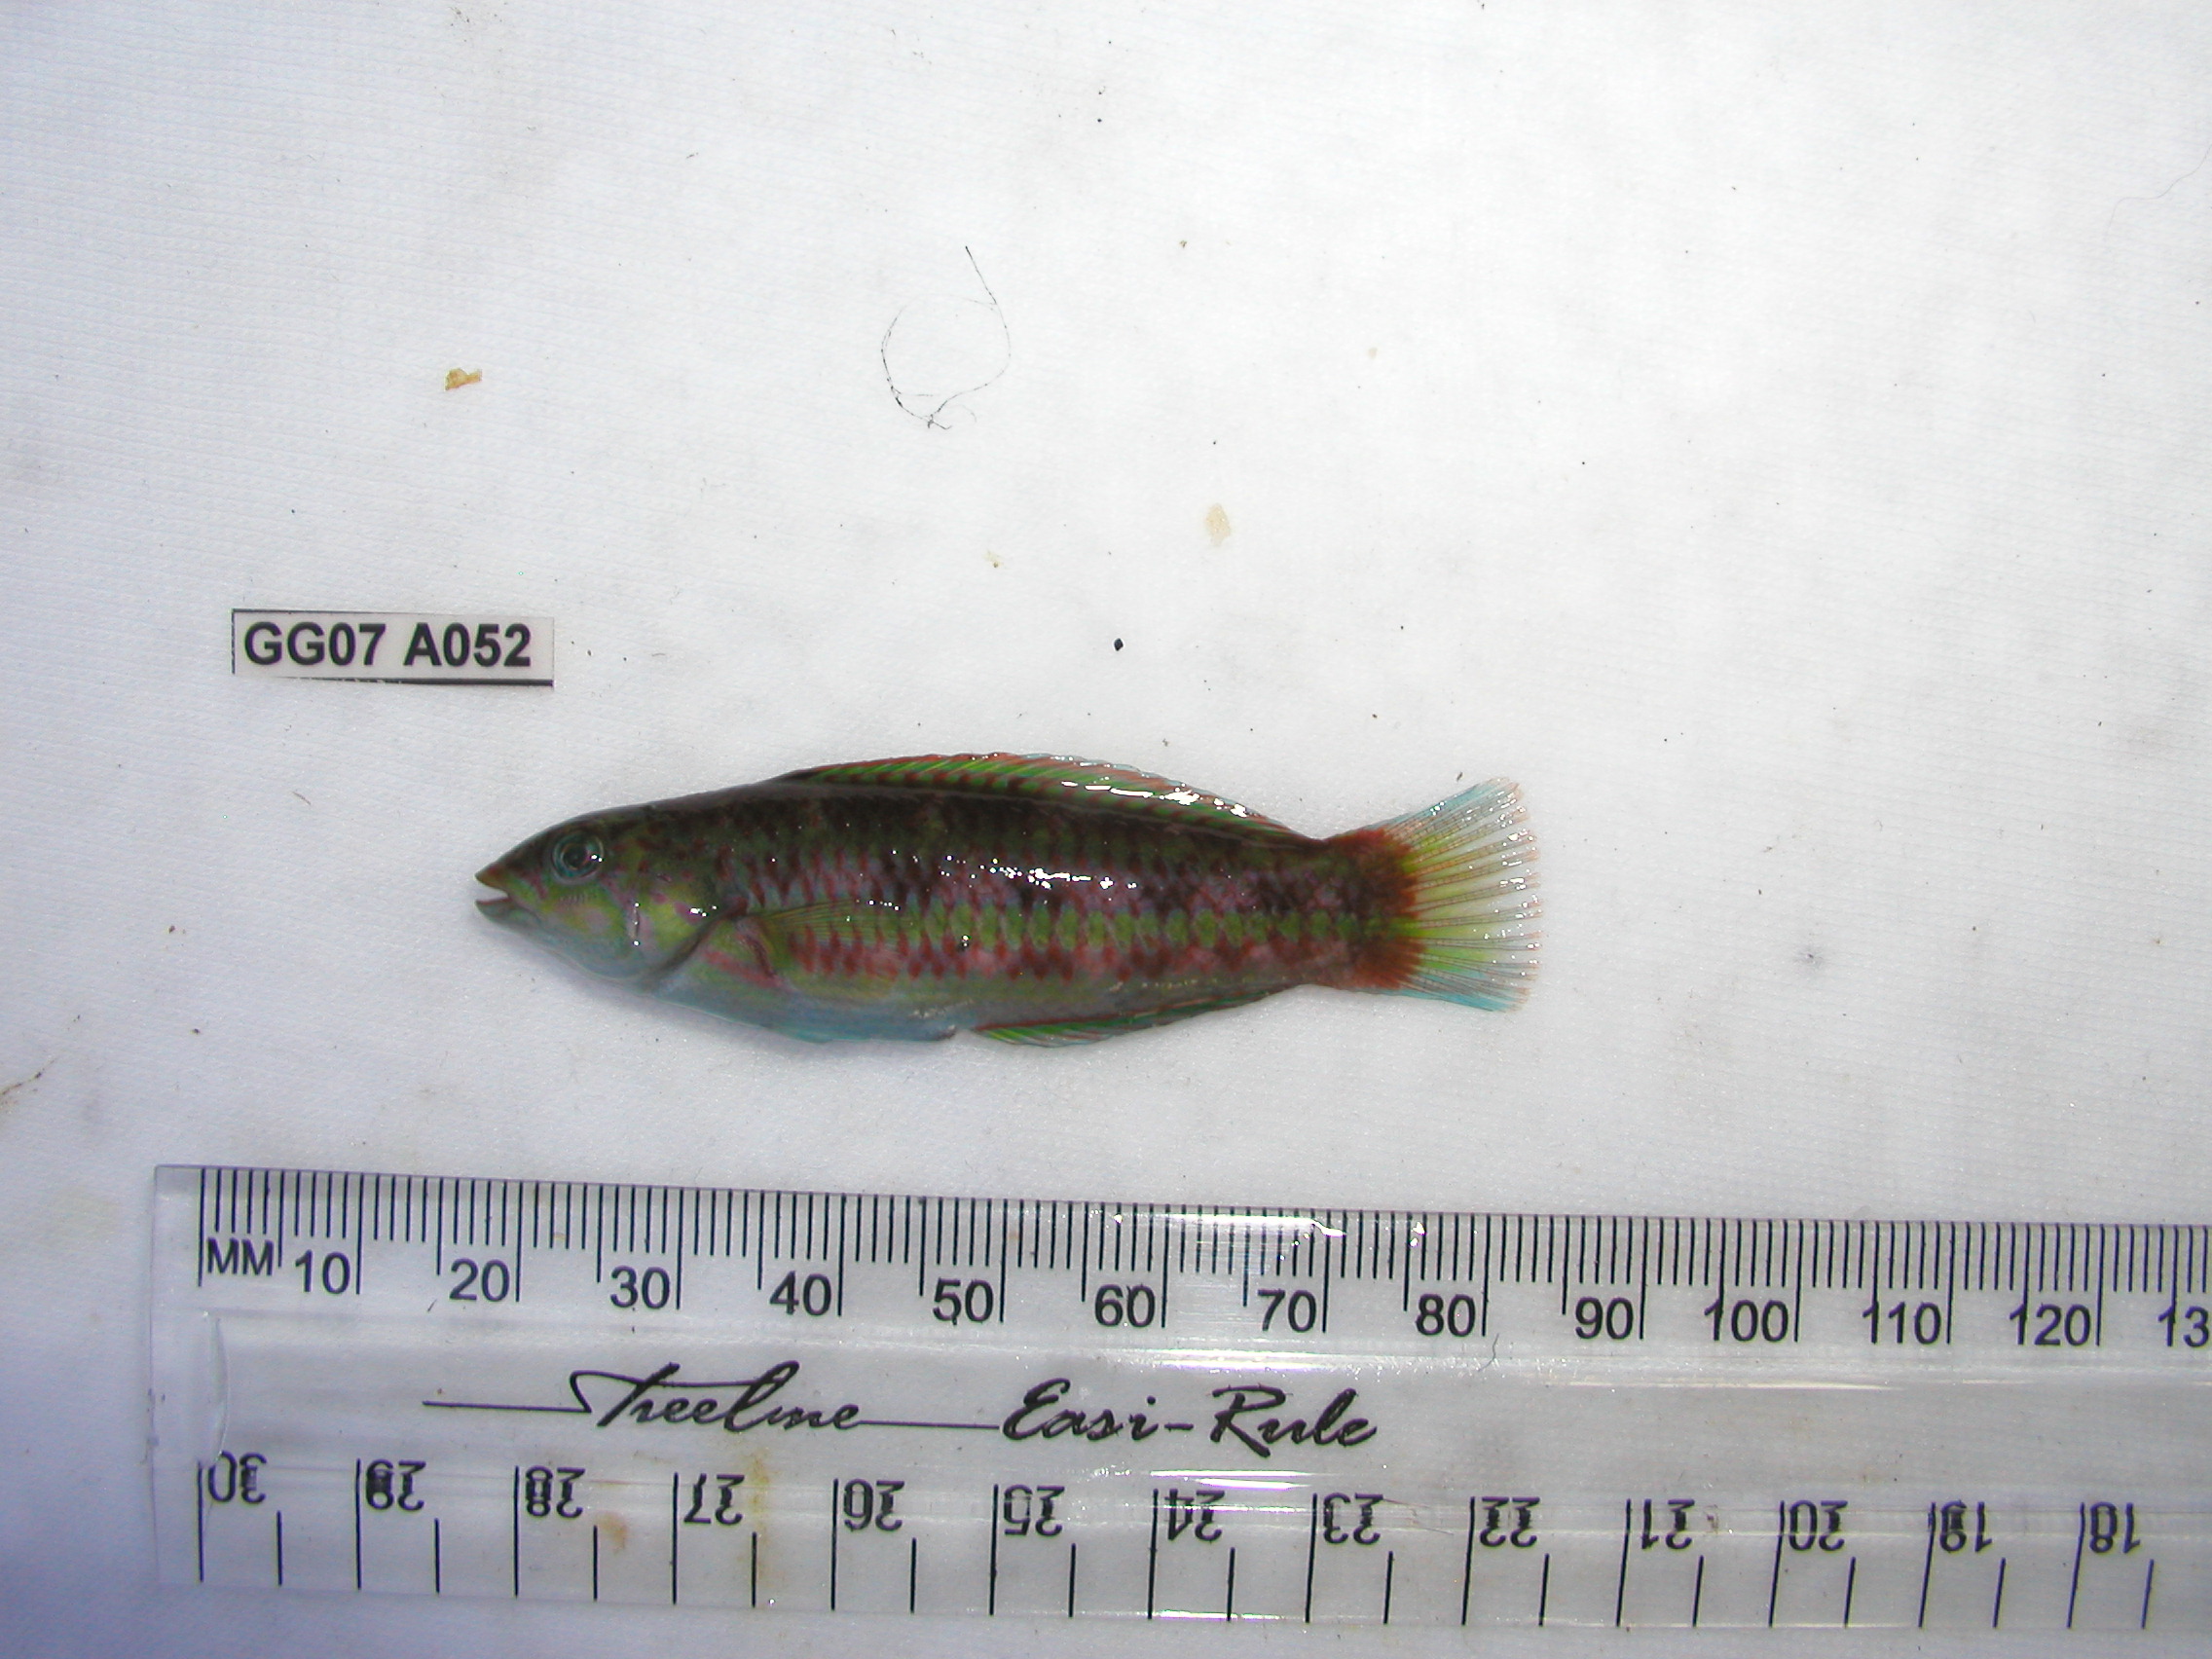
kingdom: Animalia
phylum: Chordata
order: Perciformes
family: Labridae
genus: Thalassoma
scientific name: Thalassoma purpureum
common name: Parrotfish
